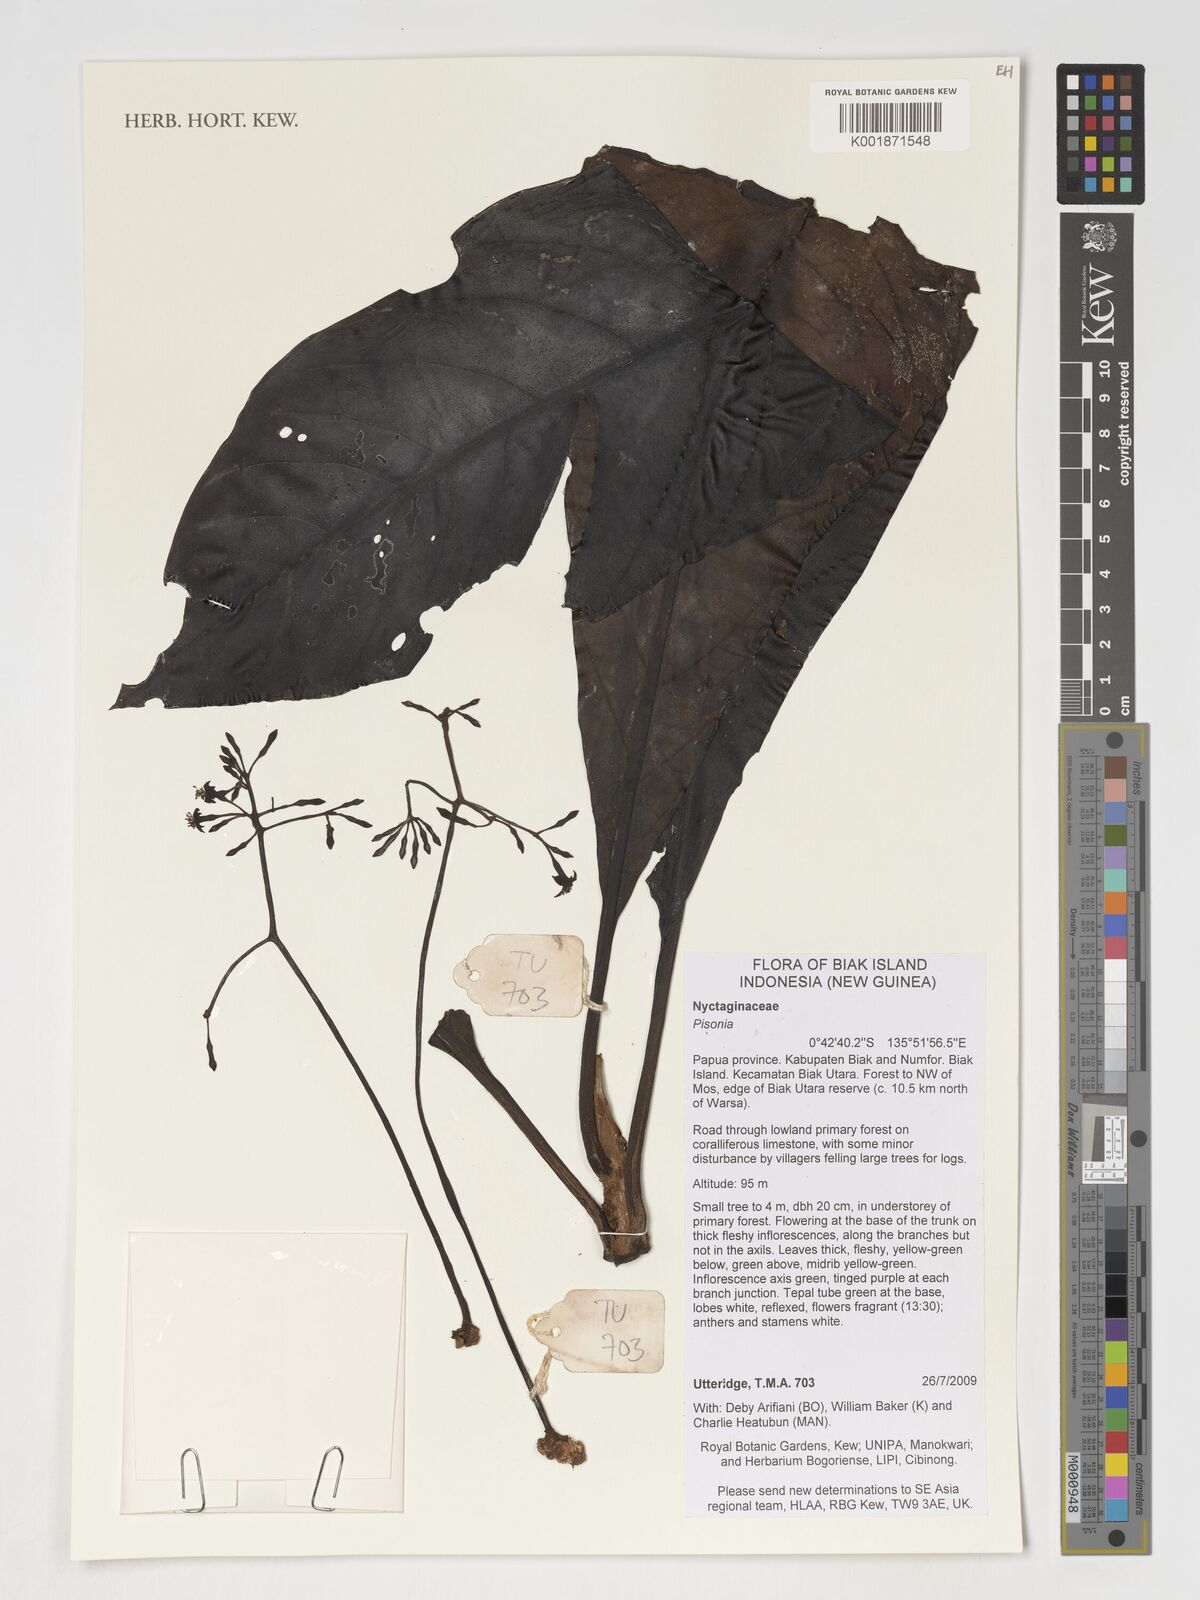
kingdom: Plantae
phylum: Tracheophyta
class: Magnoliopsida
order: Caryophyllales
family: Nyctaginaceae
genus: Pisonia
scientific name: Pisonia
